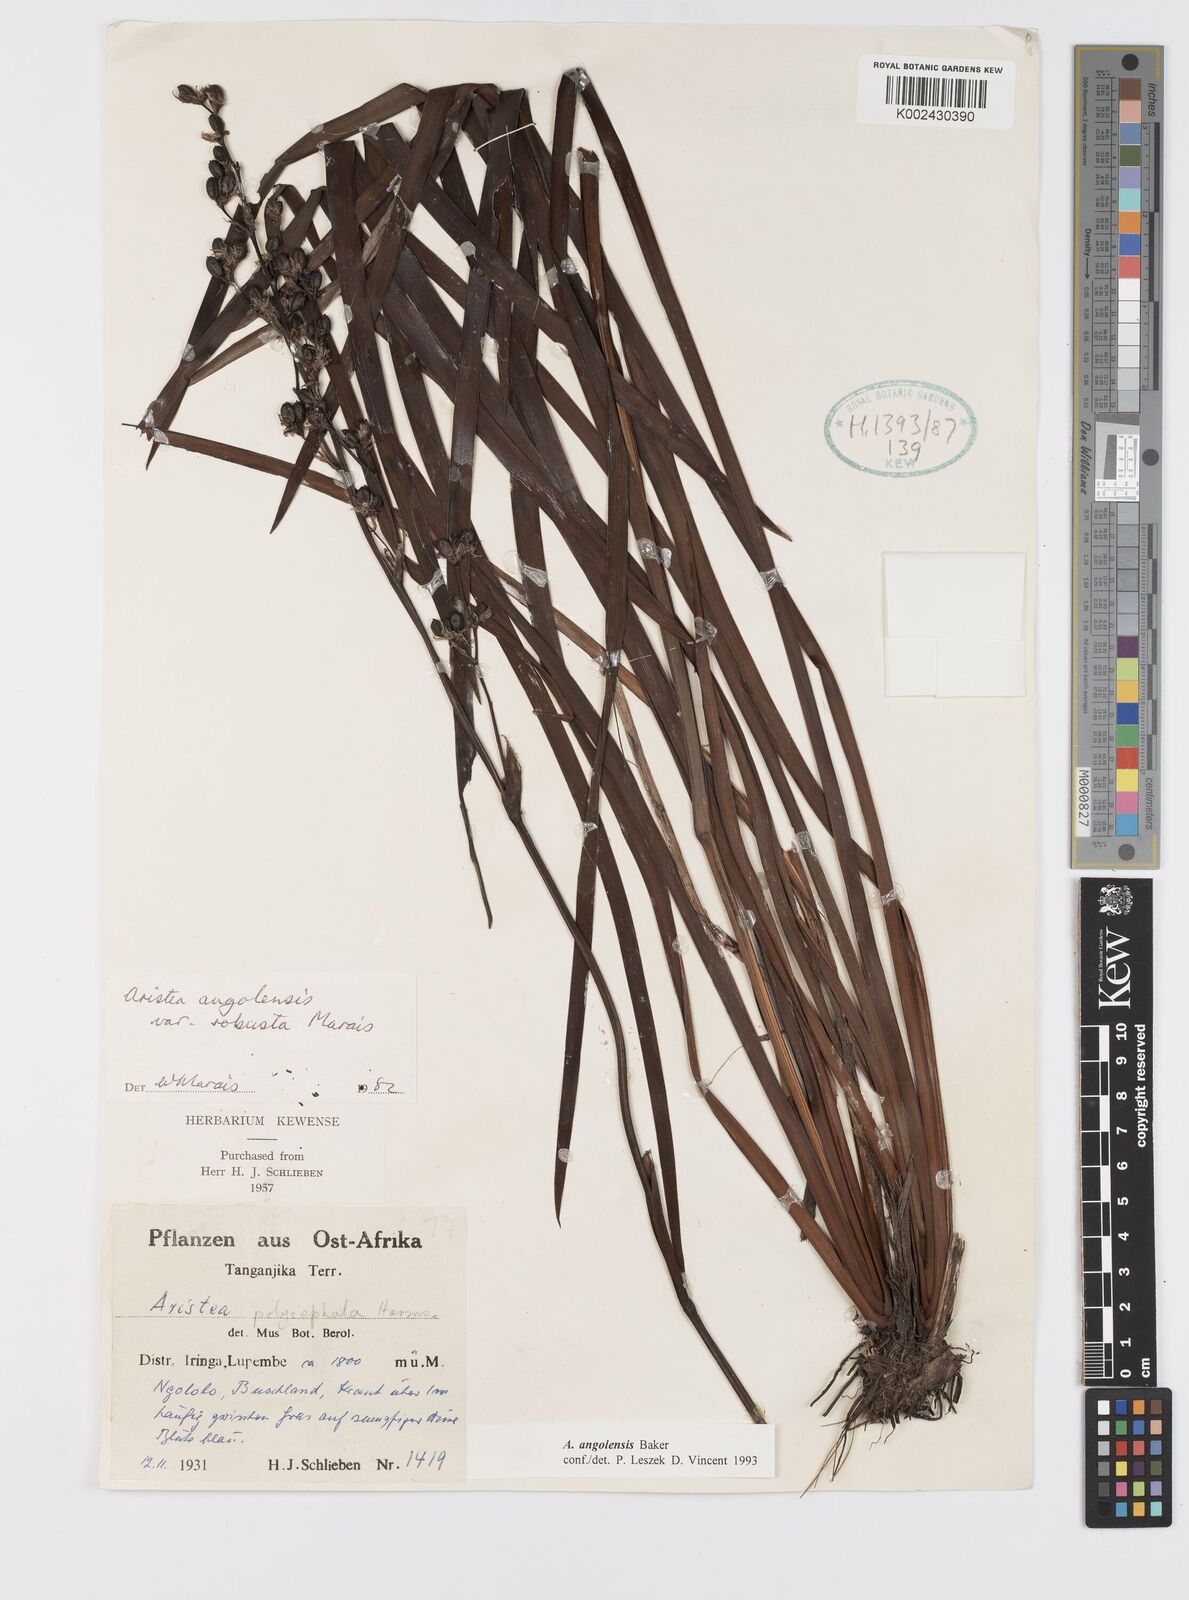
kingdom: Plantae
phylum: Tracheophyta
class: Liliopsida
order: Asparagales
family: Iridaceae
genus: Aristea
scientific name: Aristea angolensis
